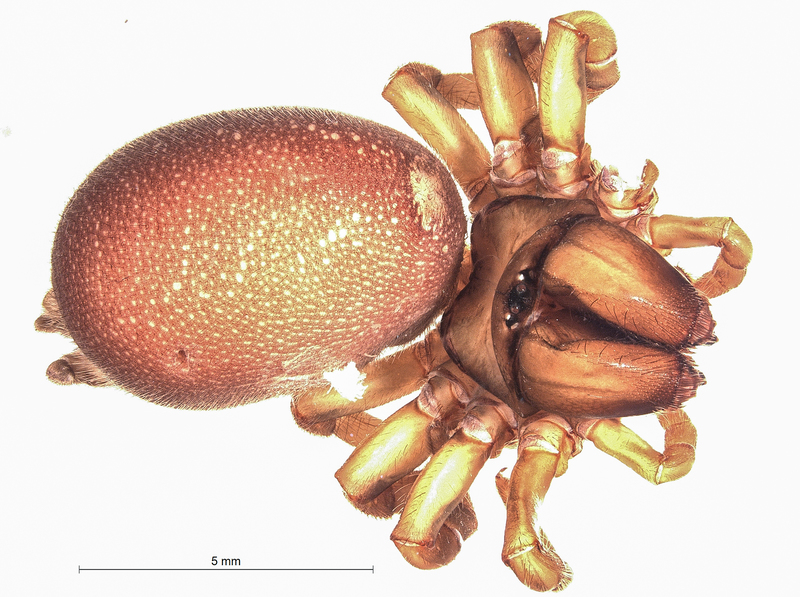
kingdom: Animalia
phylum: Arthropoda
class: Arachnida
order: Araneae
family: Atypidae
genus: Atypus
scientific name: Atypus piceus
